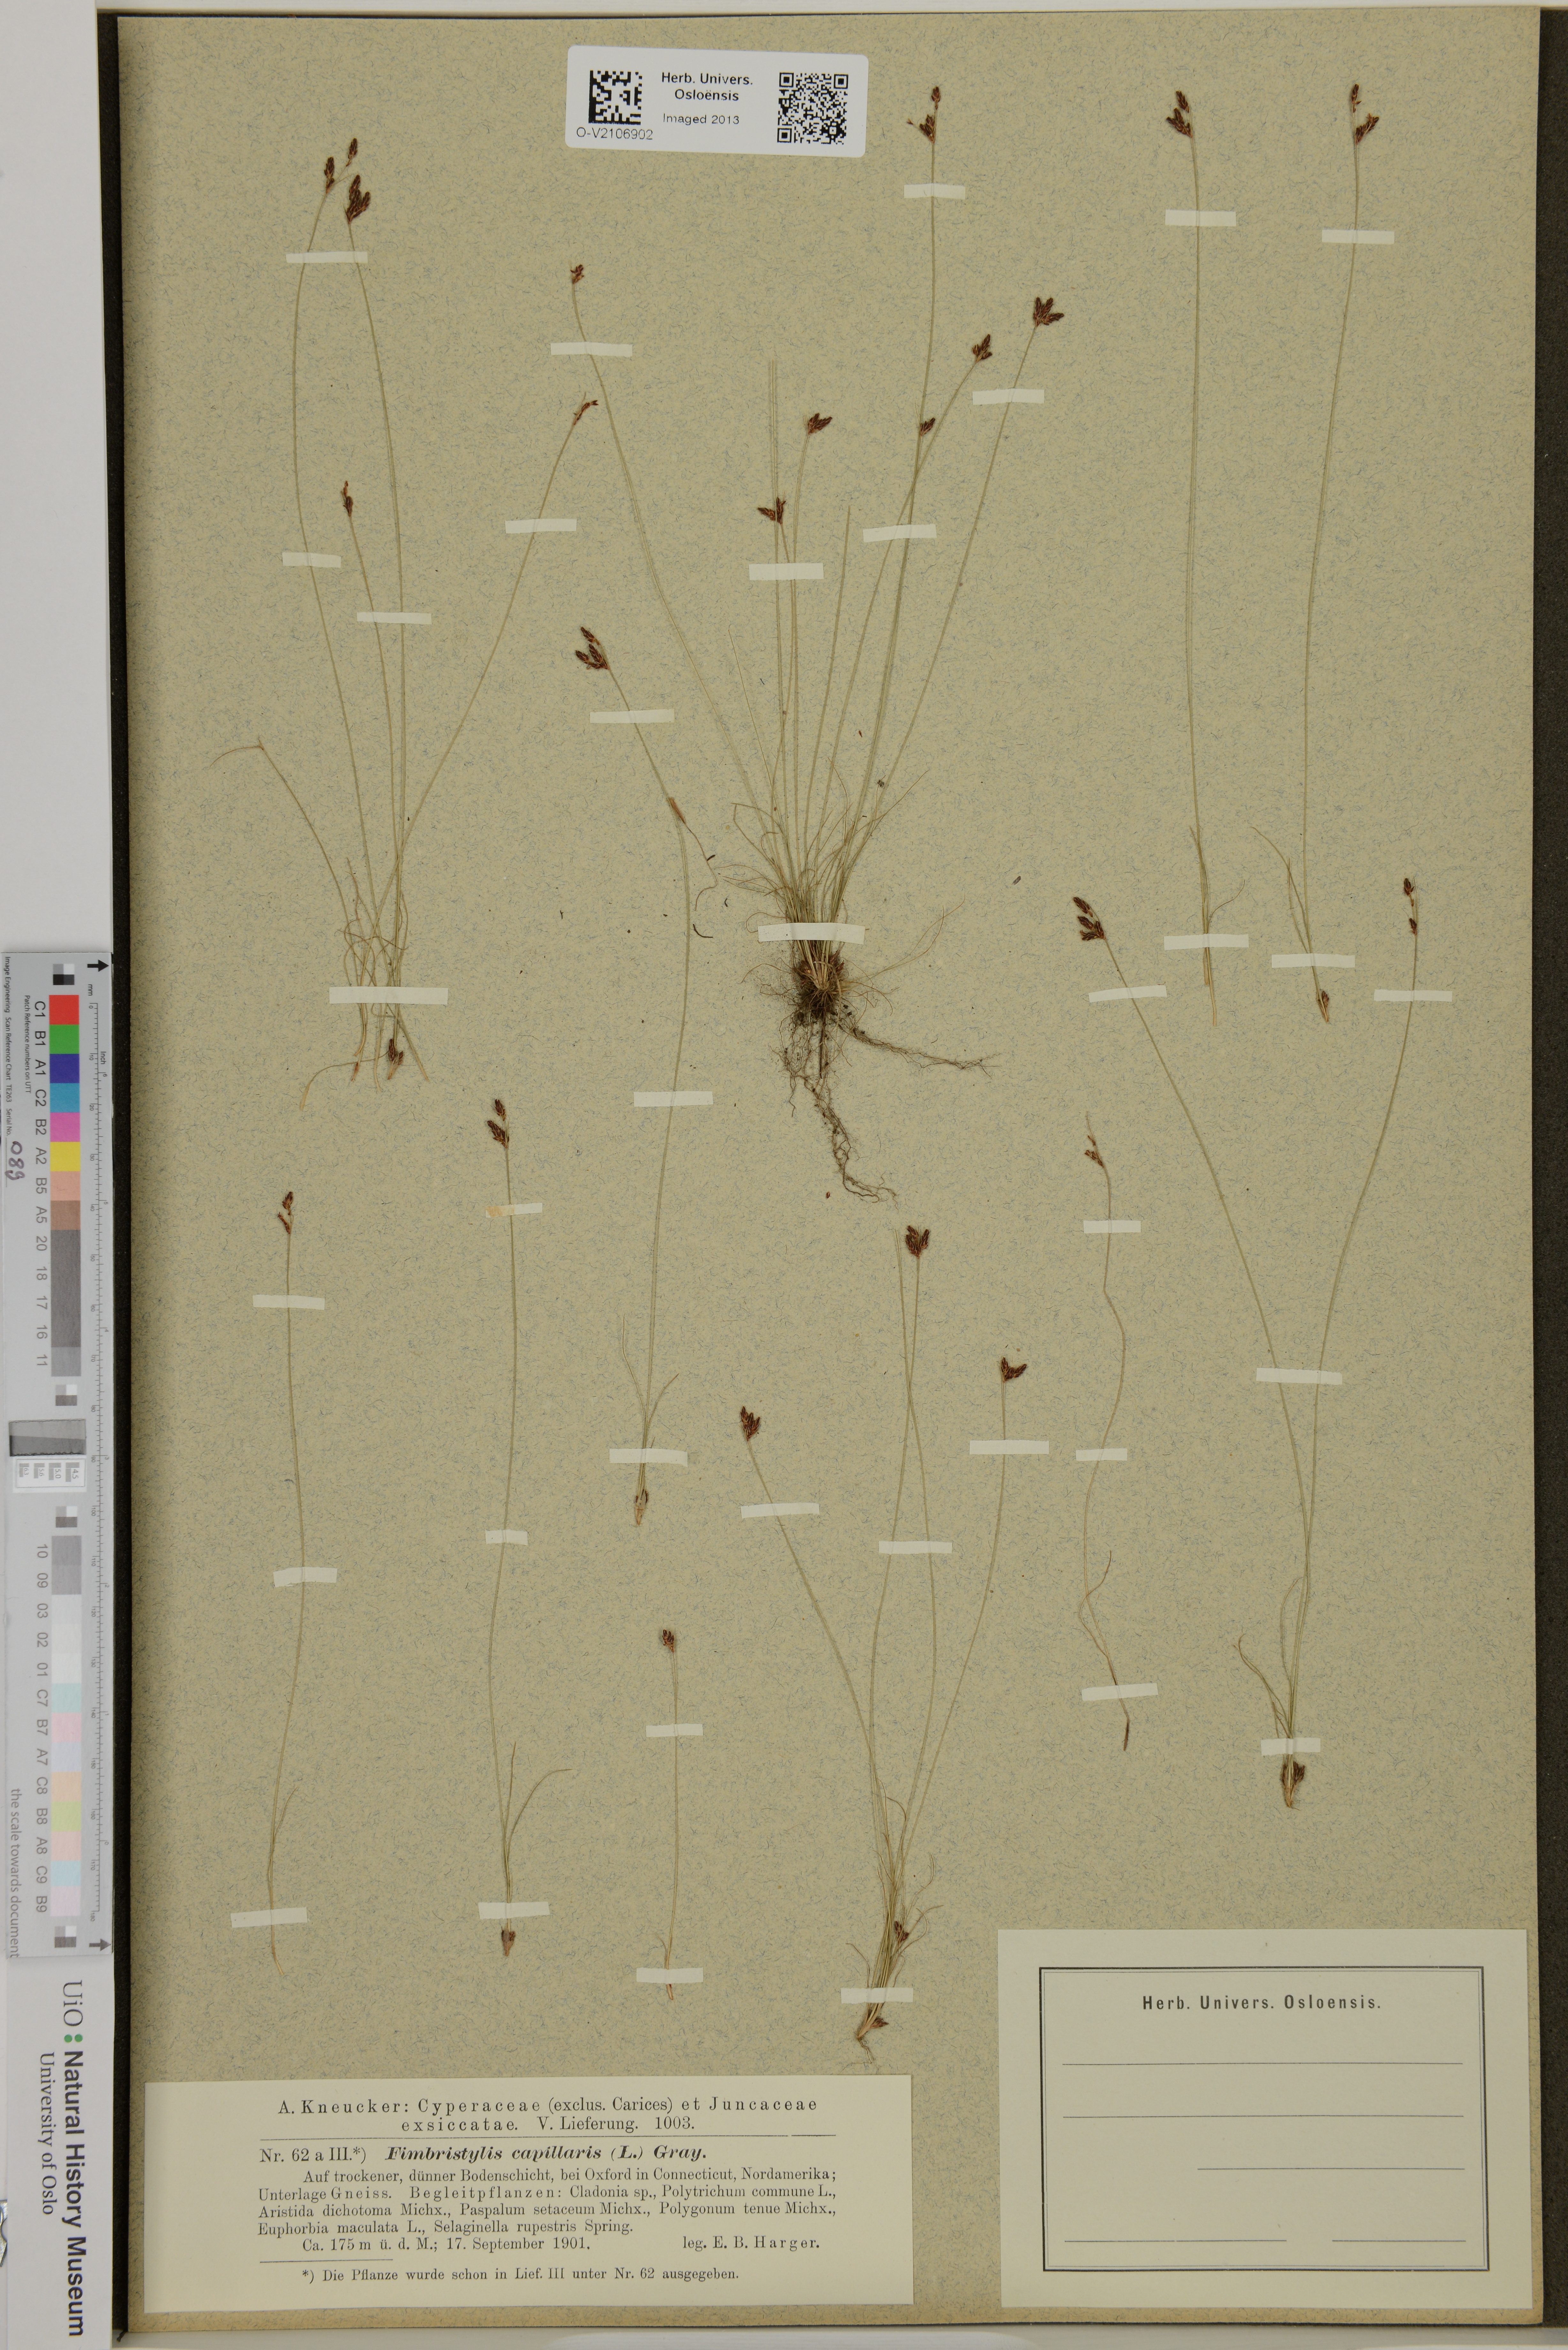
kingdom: Plantae
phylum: Tracheophyta
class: Liliopsida
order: Poales
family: Cyperaceae
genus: Bulbostylis
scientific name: Bulbostylis capillaris
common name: Densetuft hairsedge
